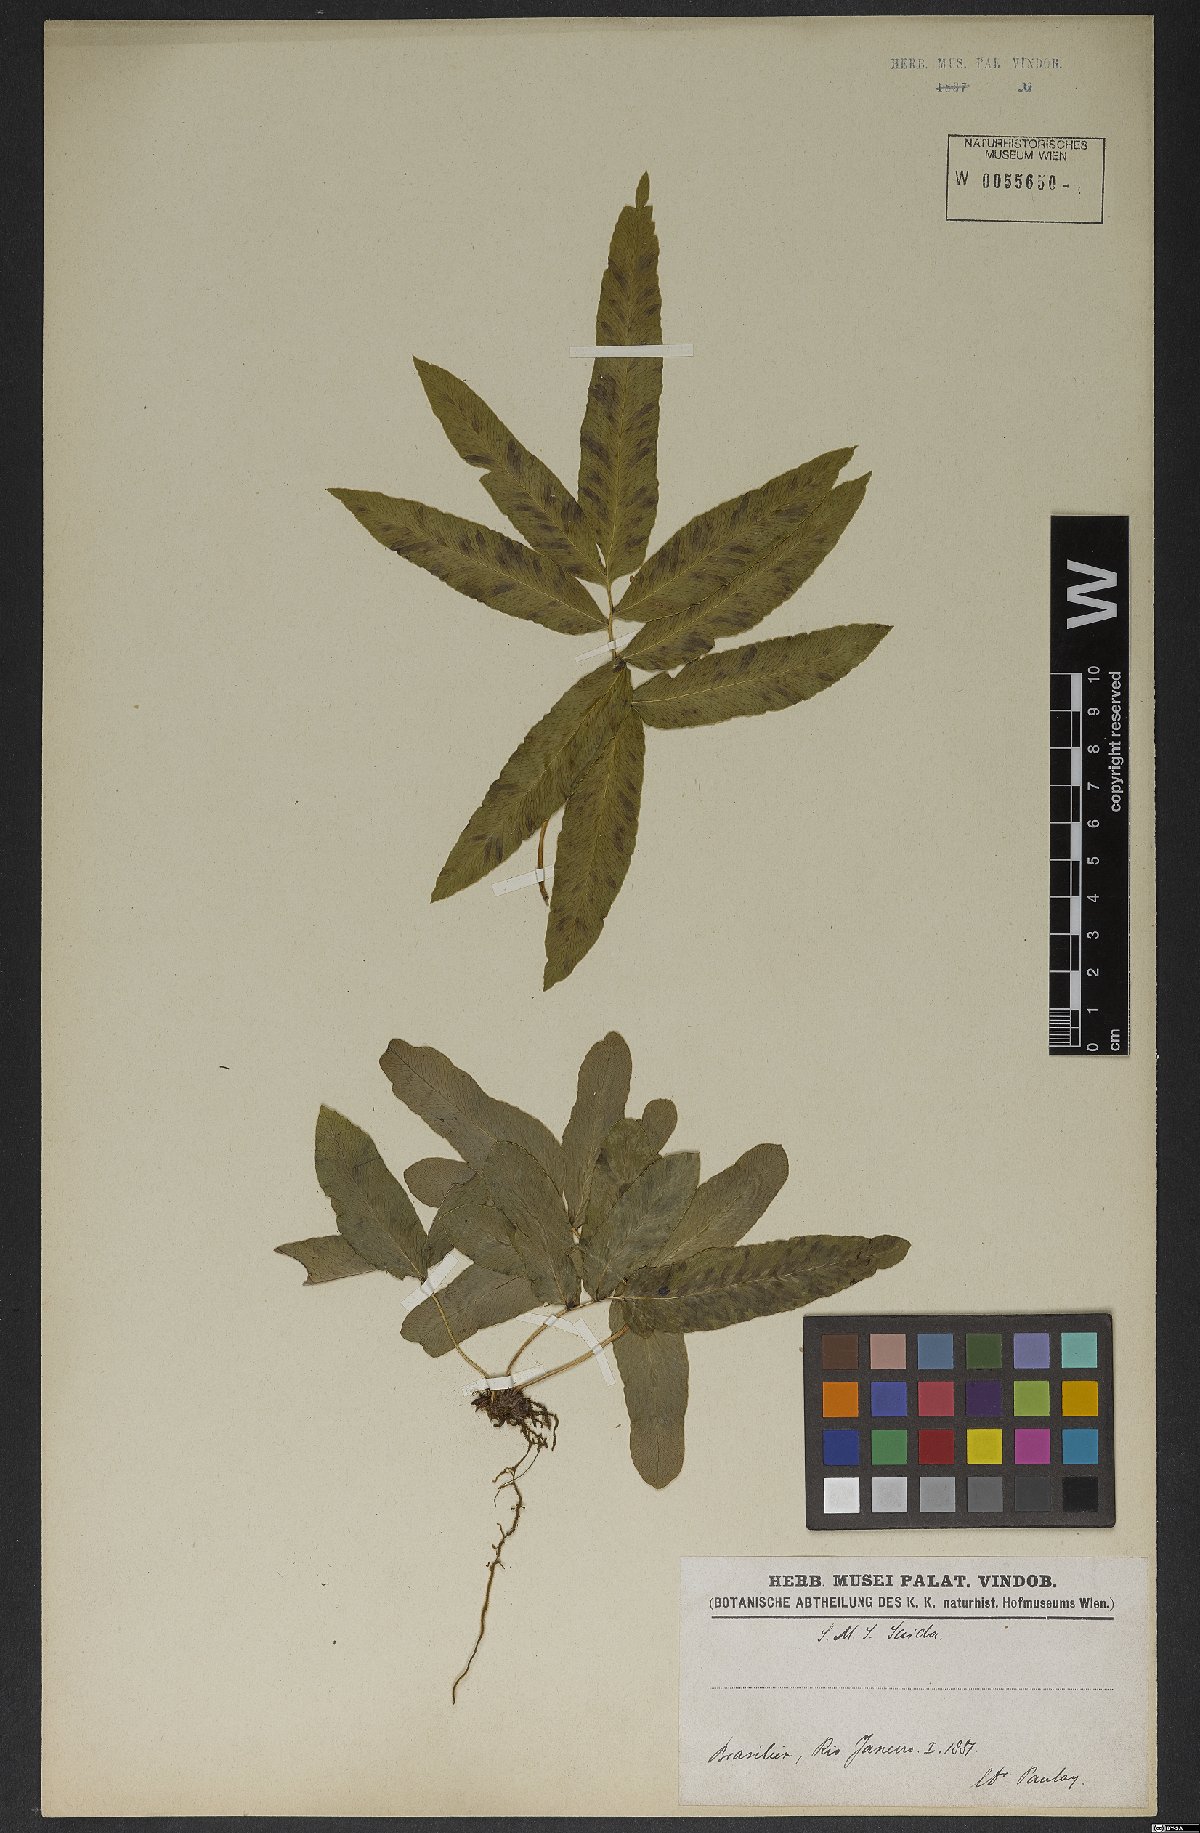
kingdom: Plantae
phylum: Tracheophyta
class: Polypodiopsida
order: Schizaeales
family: Lygodiaceae
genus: Lygodium
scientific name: Lygodium
